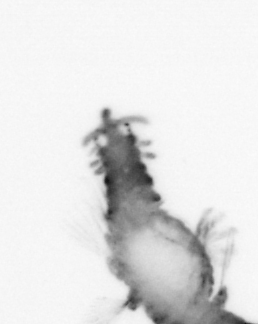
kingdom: Animalia
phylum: Annelida
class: Polychaeta
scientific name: Polychaeta
